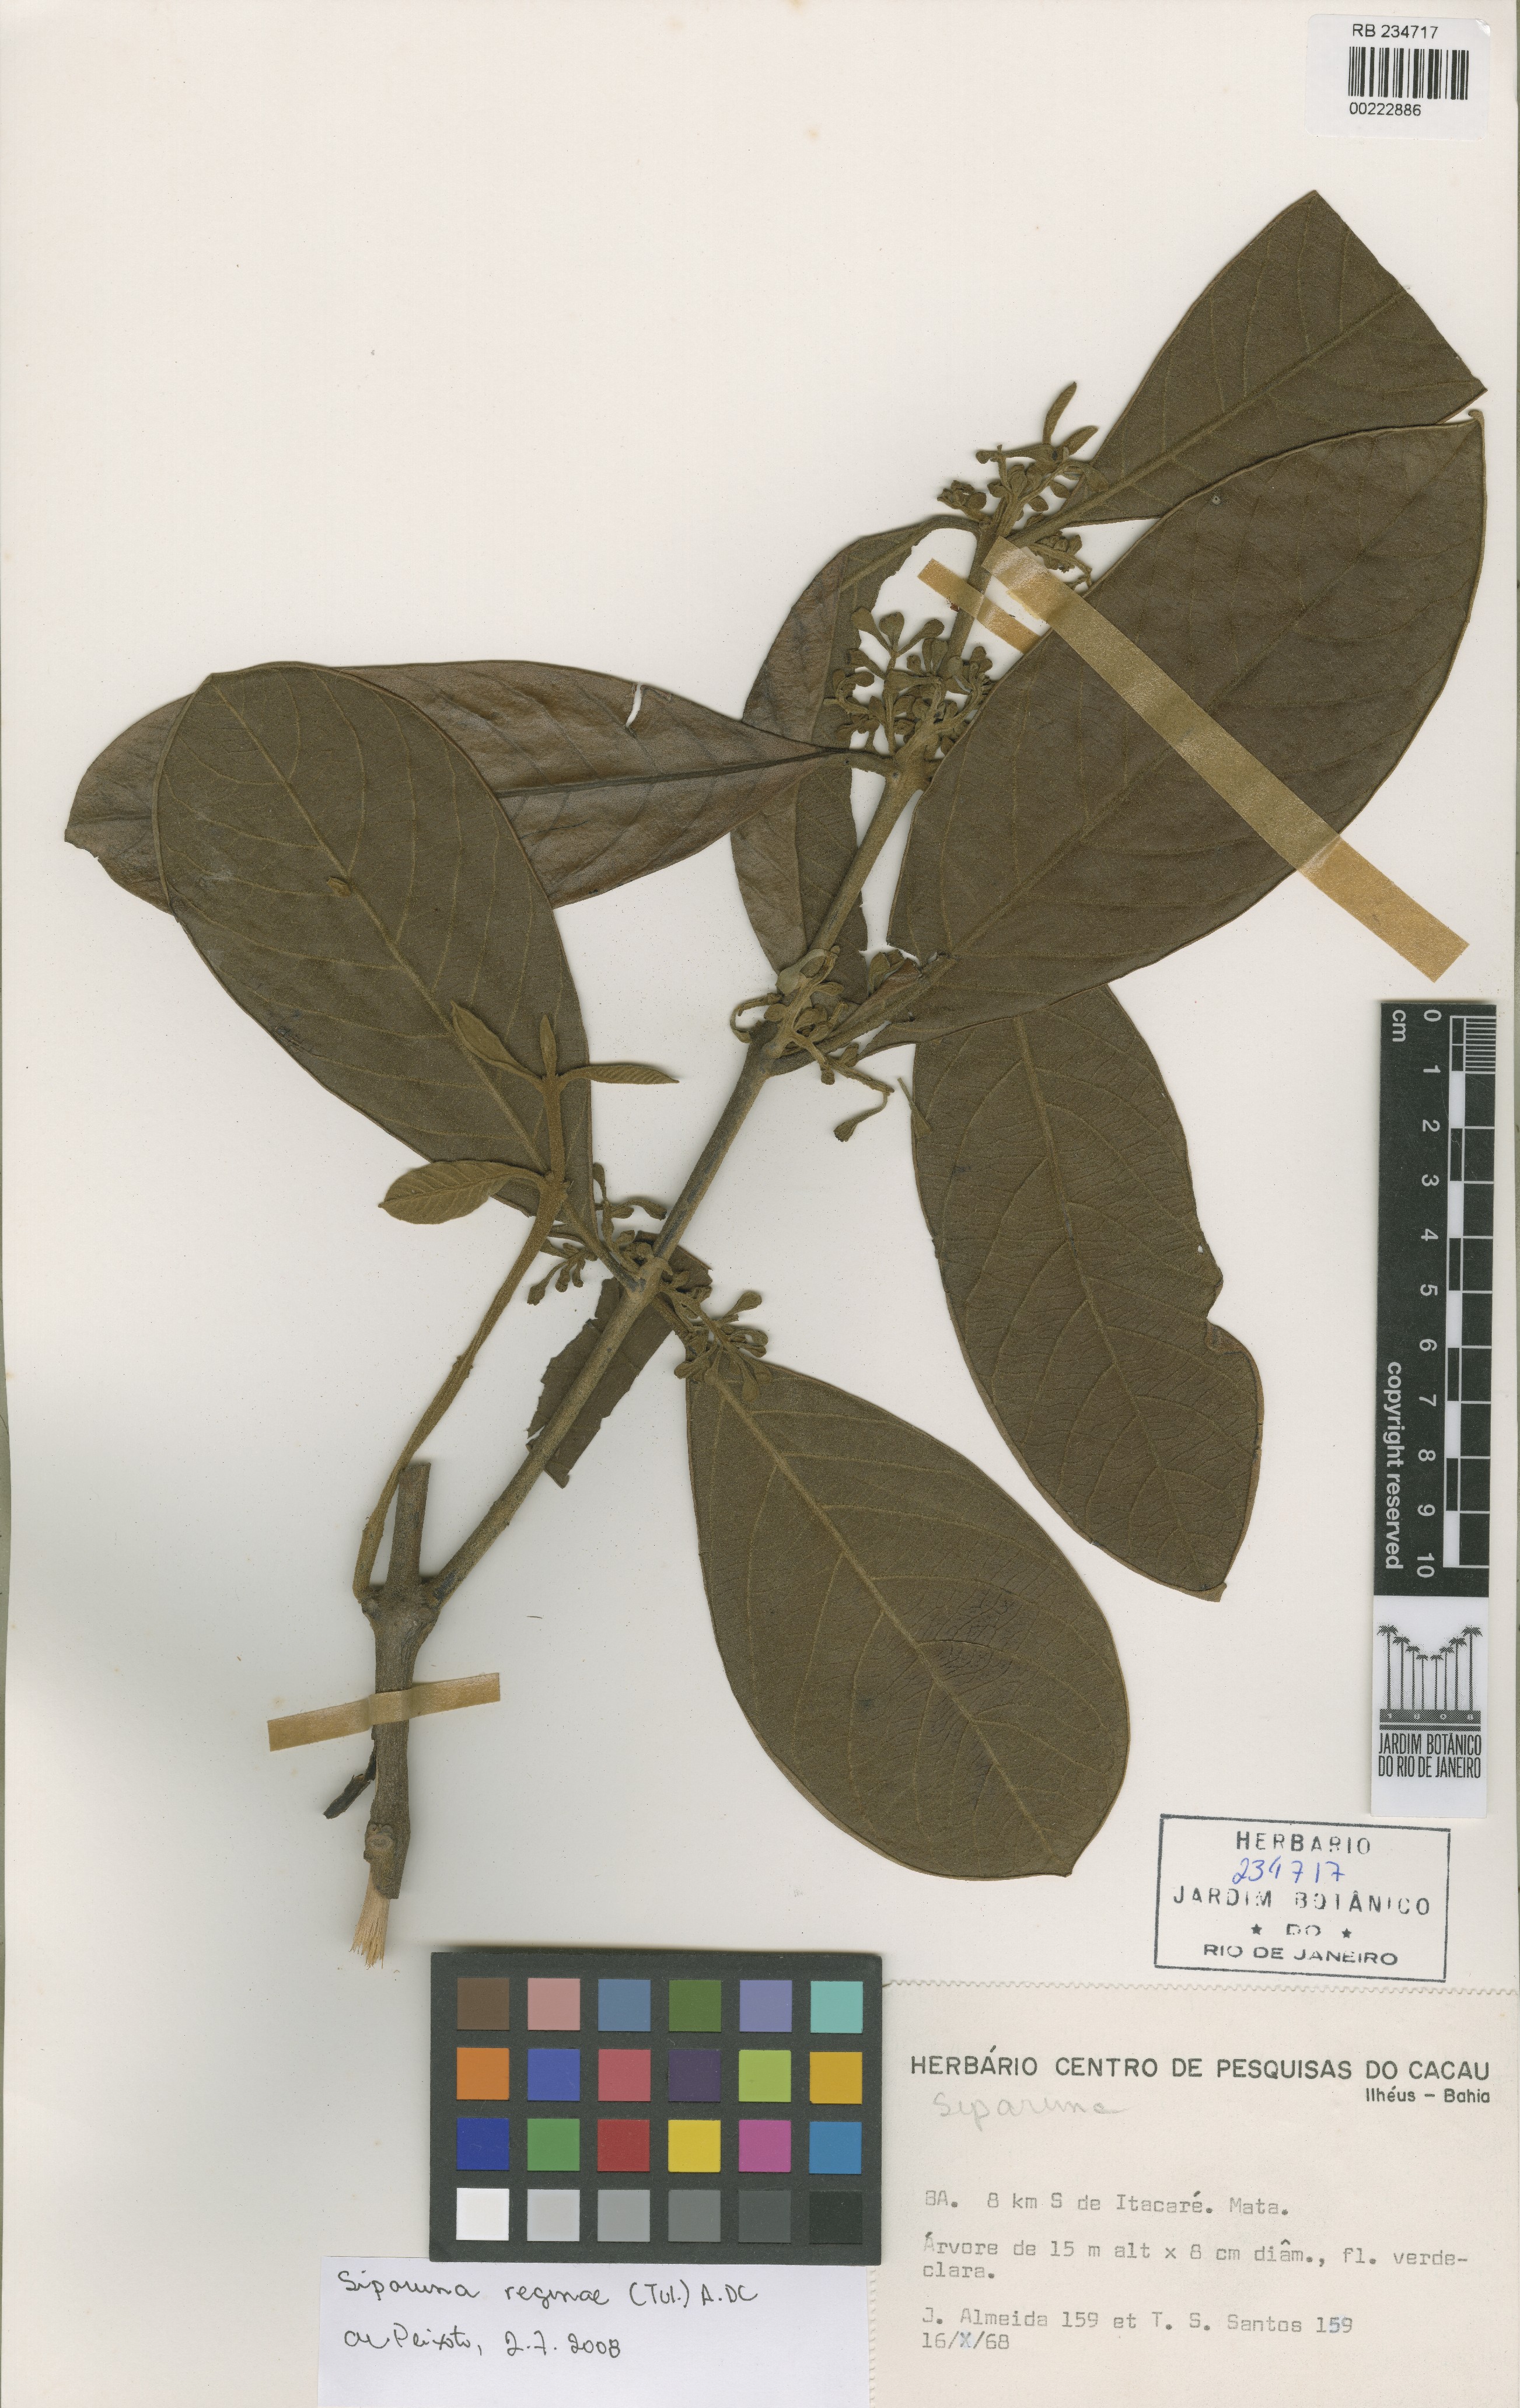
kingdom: Plantae
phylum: Tracheophyta
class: Magnoliopsida
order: Laurales
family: Siparunaceae
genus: Siparuna
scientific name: Siparuna reginae
